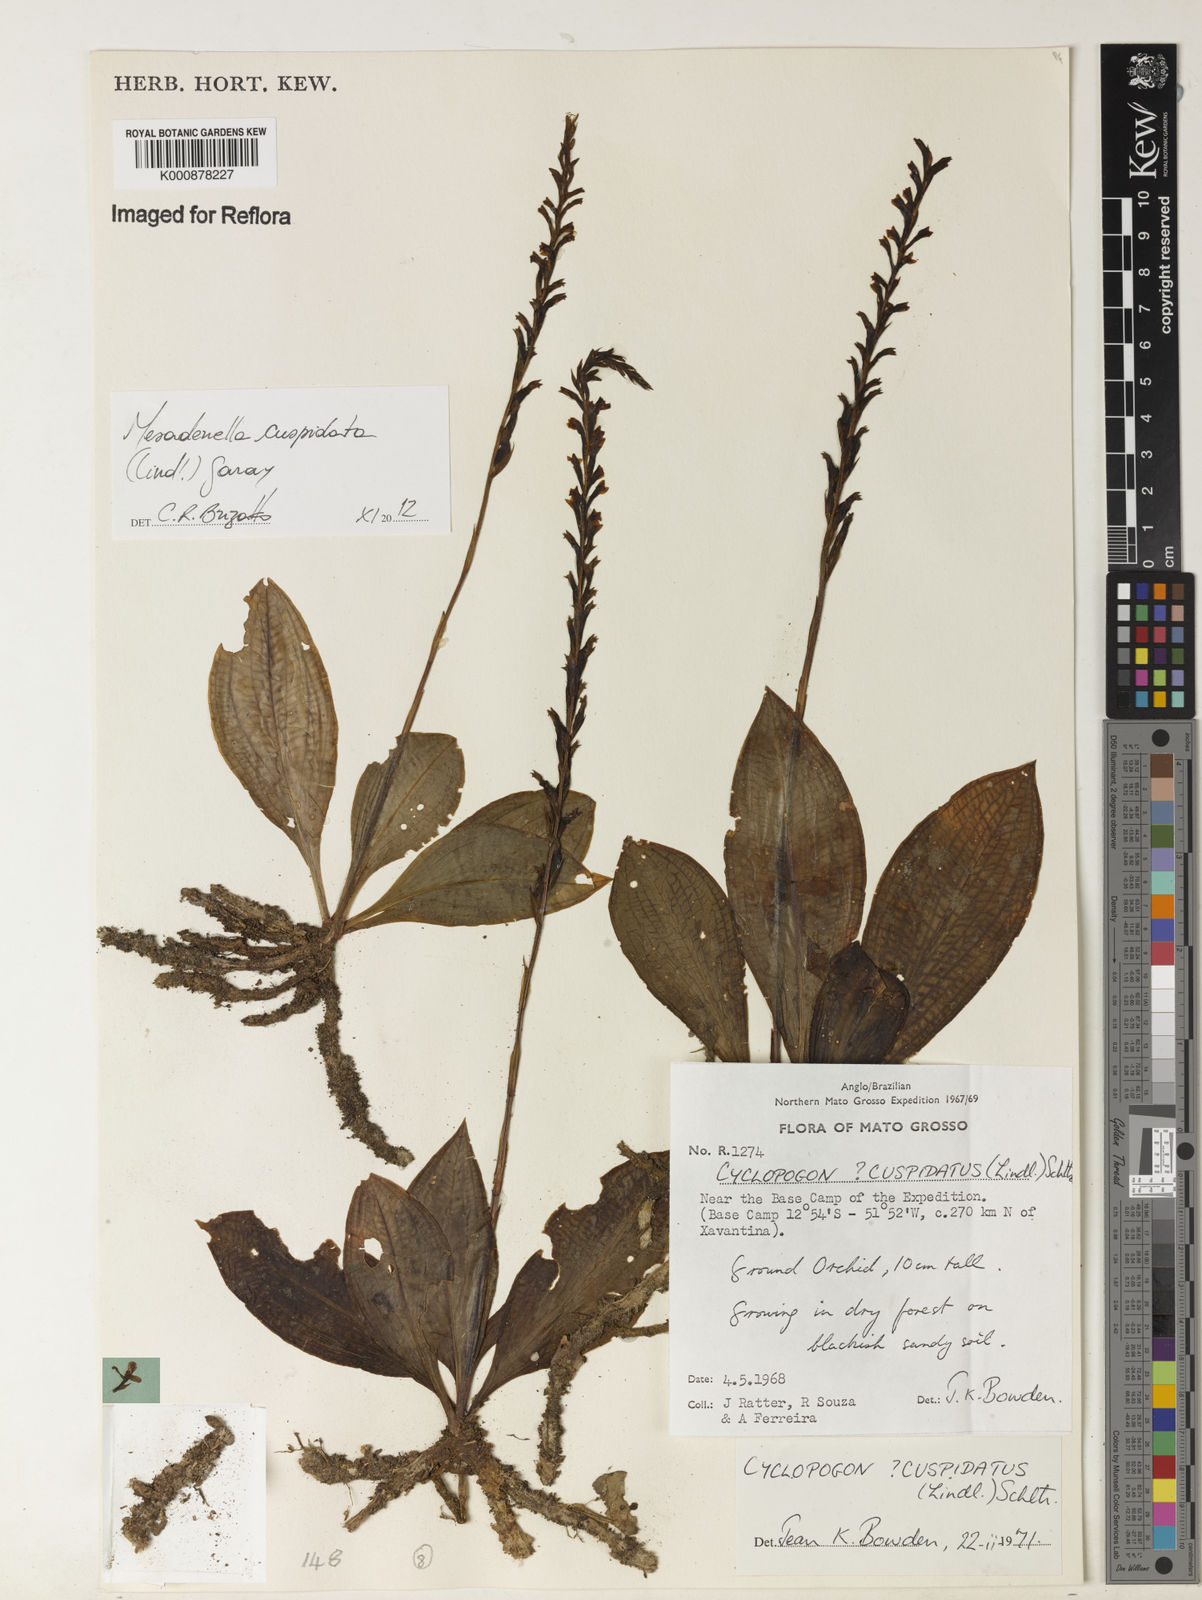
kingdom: Plantae
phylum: Tracheophyta
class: Liliopsida
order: Asparagales
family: Orchidaceae
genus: Mesadenella
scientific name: Mesadenella cuspidata
